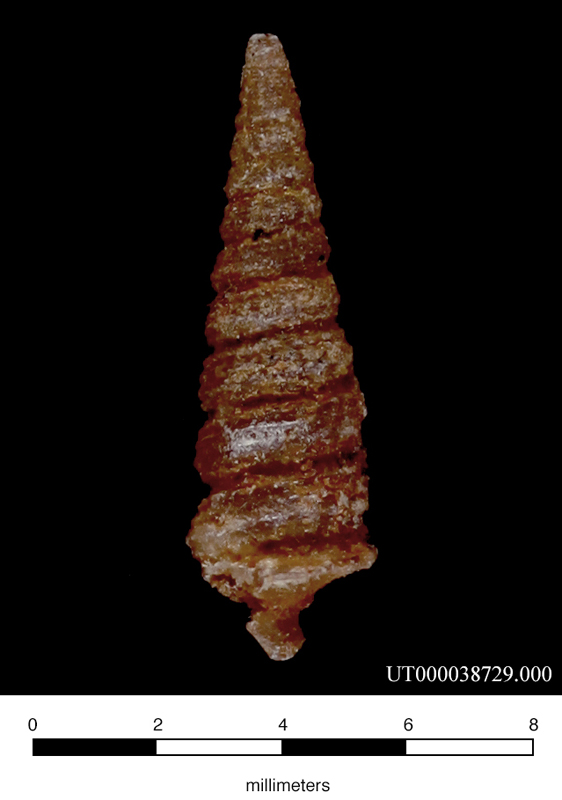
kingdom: Animalia
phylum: Mollusca
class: Gastropoda
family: Nerineidae
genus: Plesioptygmatis
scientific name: Plesioptygmatis Nerinea pseudoconvexa
